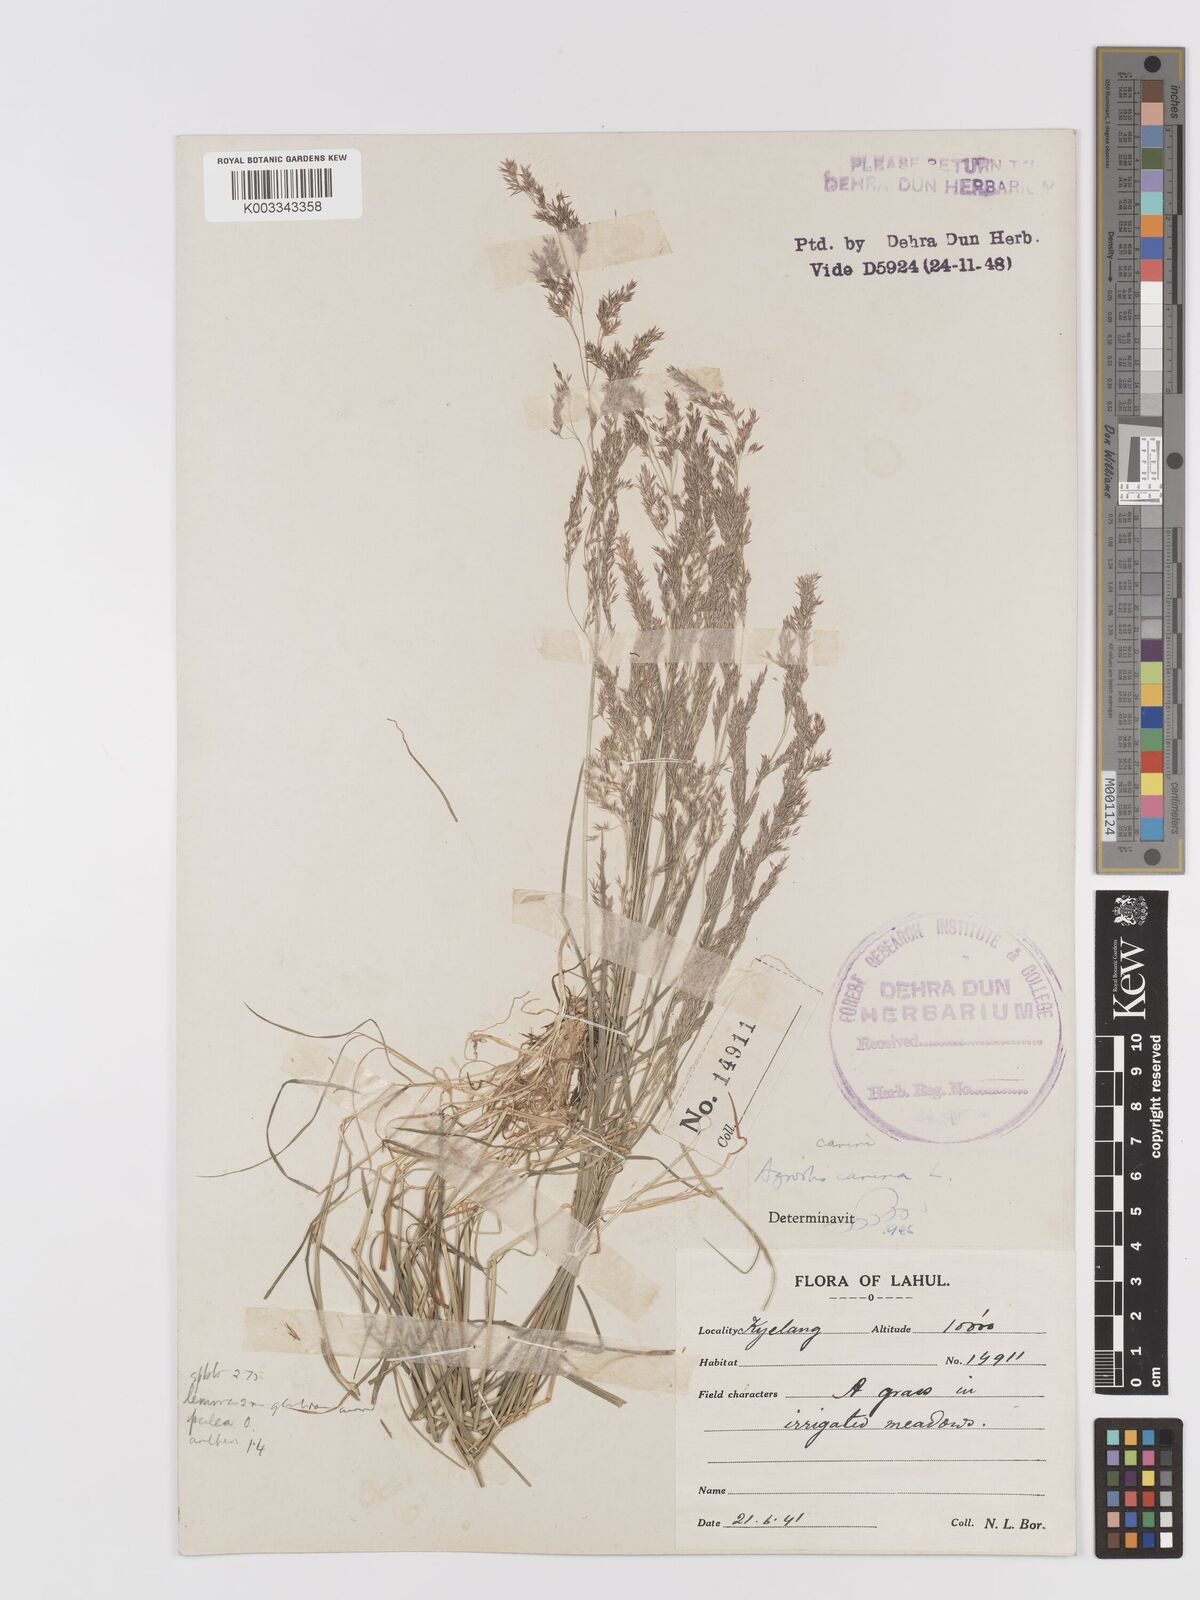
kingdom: Plantae
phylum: Tracheophyta
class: Liliopsida
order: Poales
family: Poaceae
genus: Agrostis
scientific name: Agrostis
